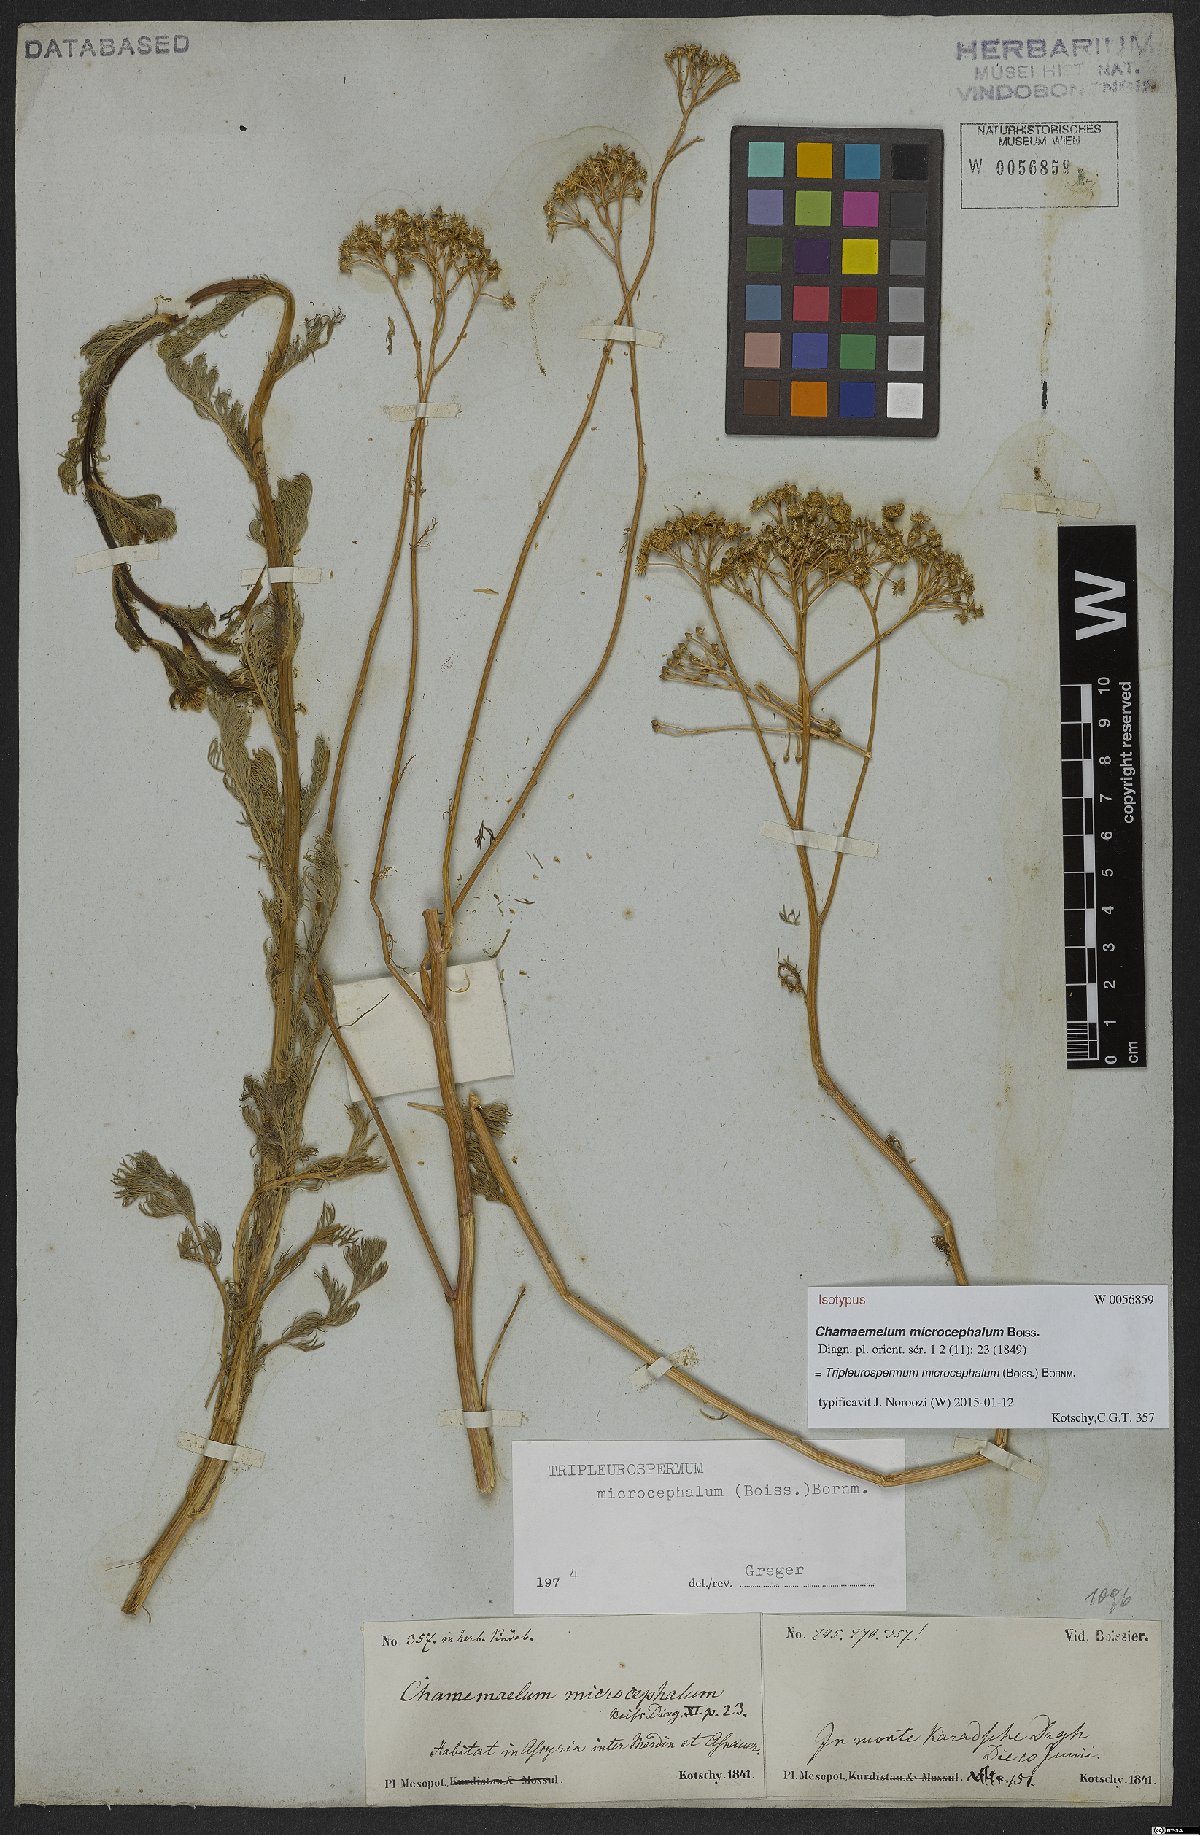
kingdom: Plantae
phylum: Tracheophyta
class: Magnoliopsida
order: Asterales
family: Asteraceae
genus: Tripleurospermum
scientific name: Tripleurospermum microcephalum
